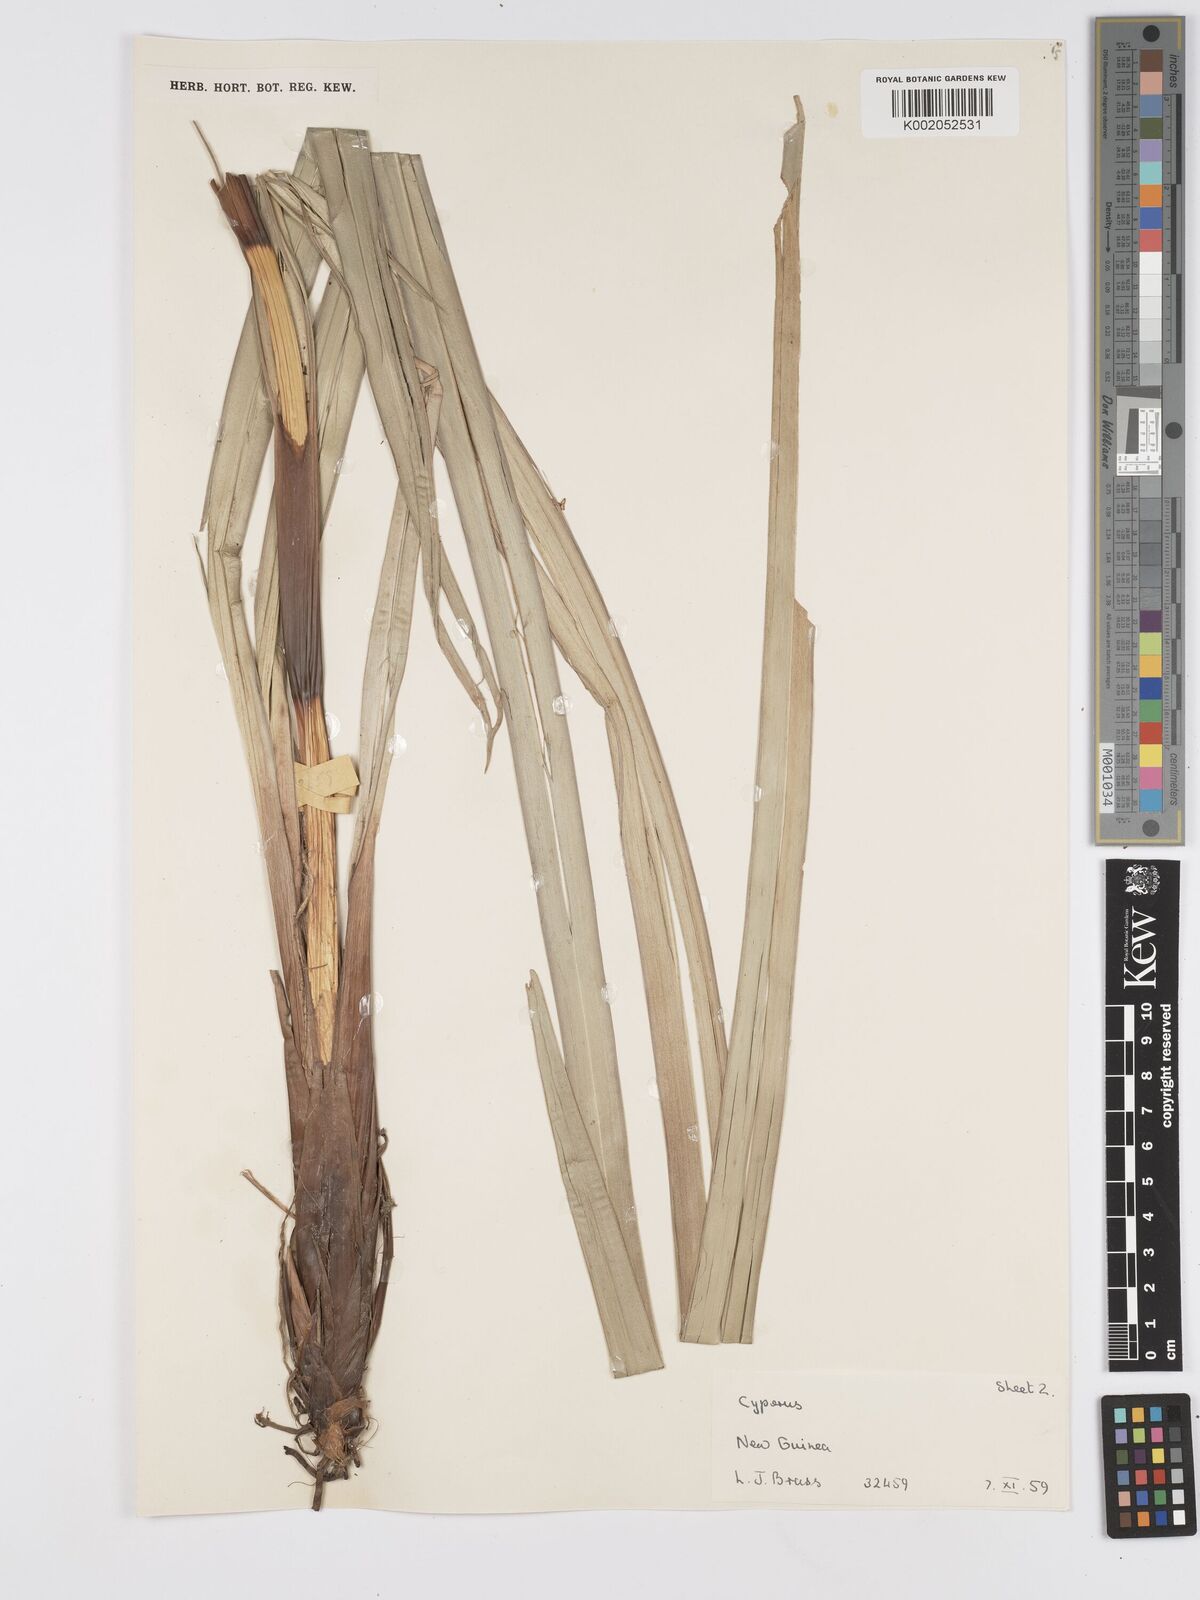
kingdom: Plantae
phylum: Tracheophyta
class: Liliopsida
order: Poales
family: Cyperaceae
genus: Scirpus
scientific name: Scirpus ternatanus
